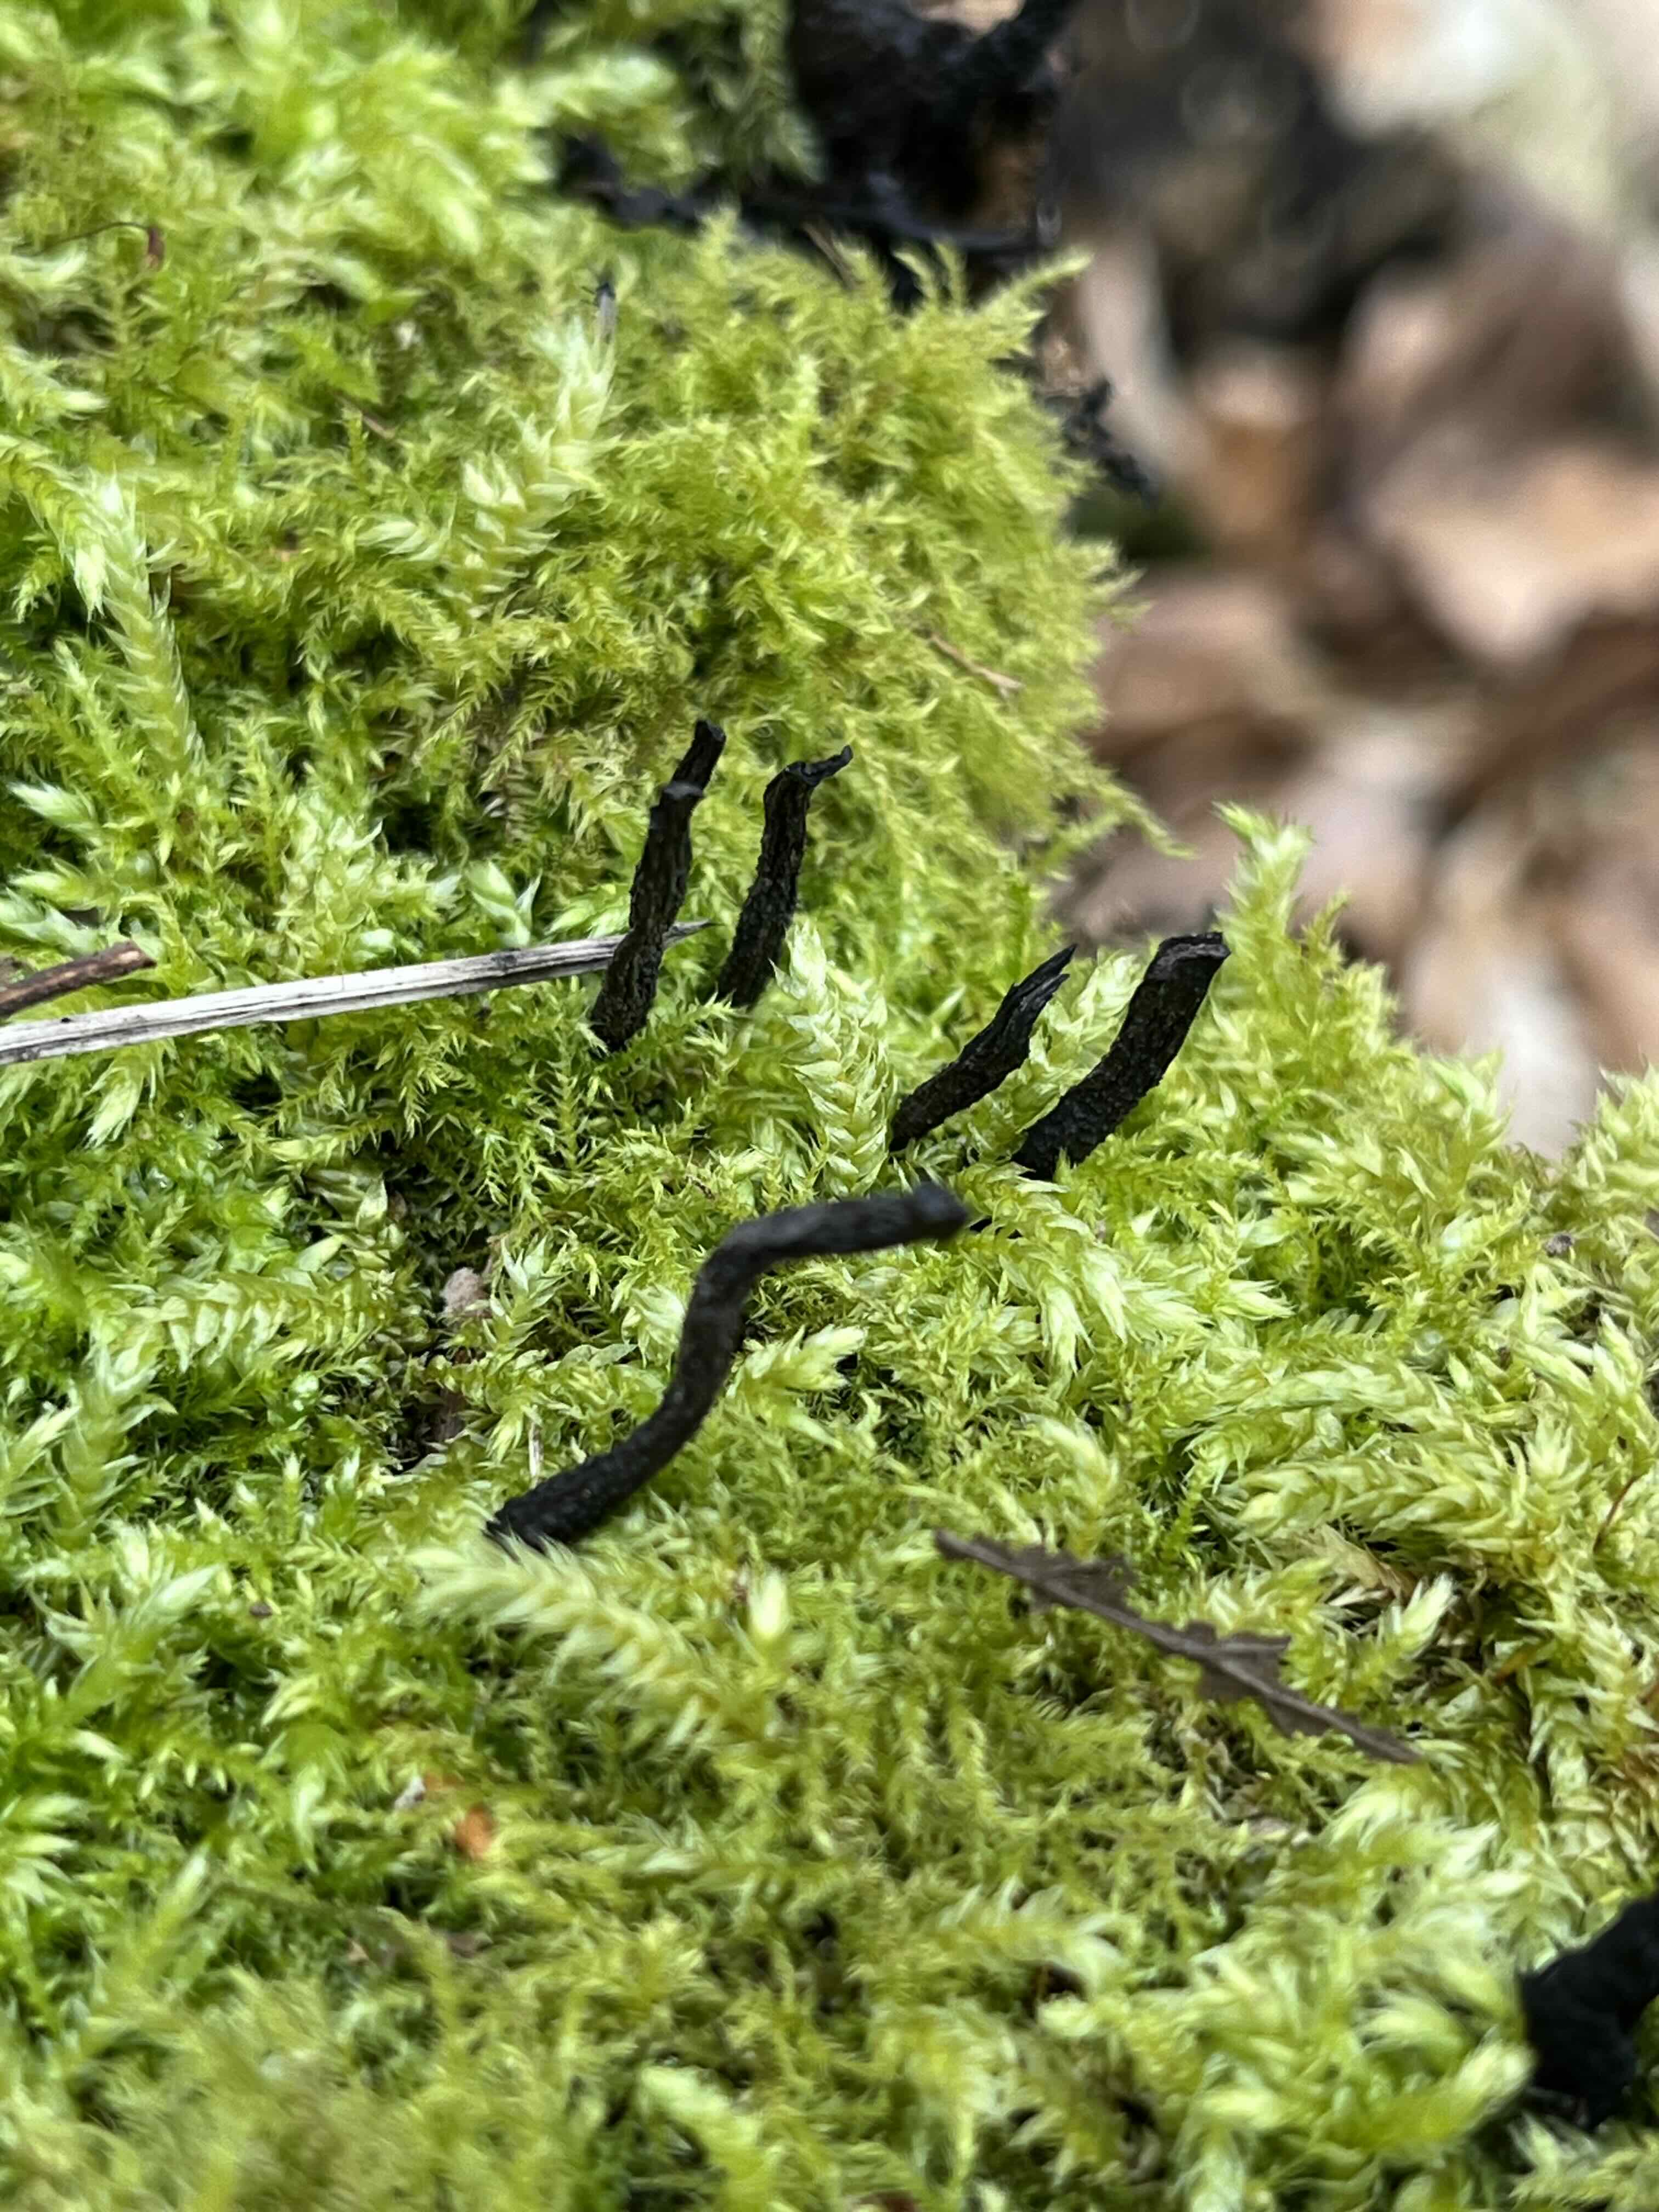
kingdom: Fungi
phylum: Ascomycota
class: Sordariomycetes
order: Xylariales
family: Xylariaceae
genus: Xylaria
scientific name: Xylaria hypoxylon
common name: grenet stødsvamp
